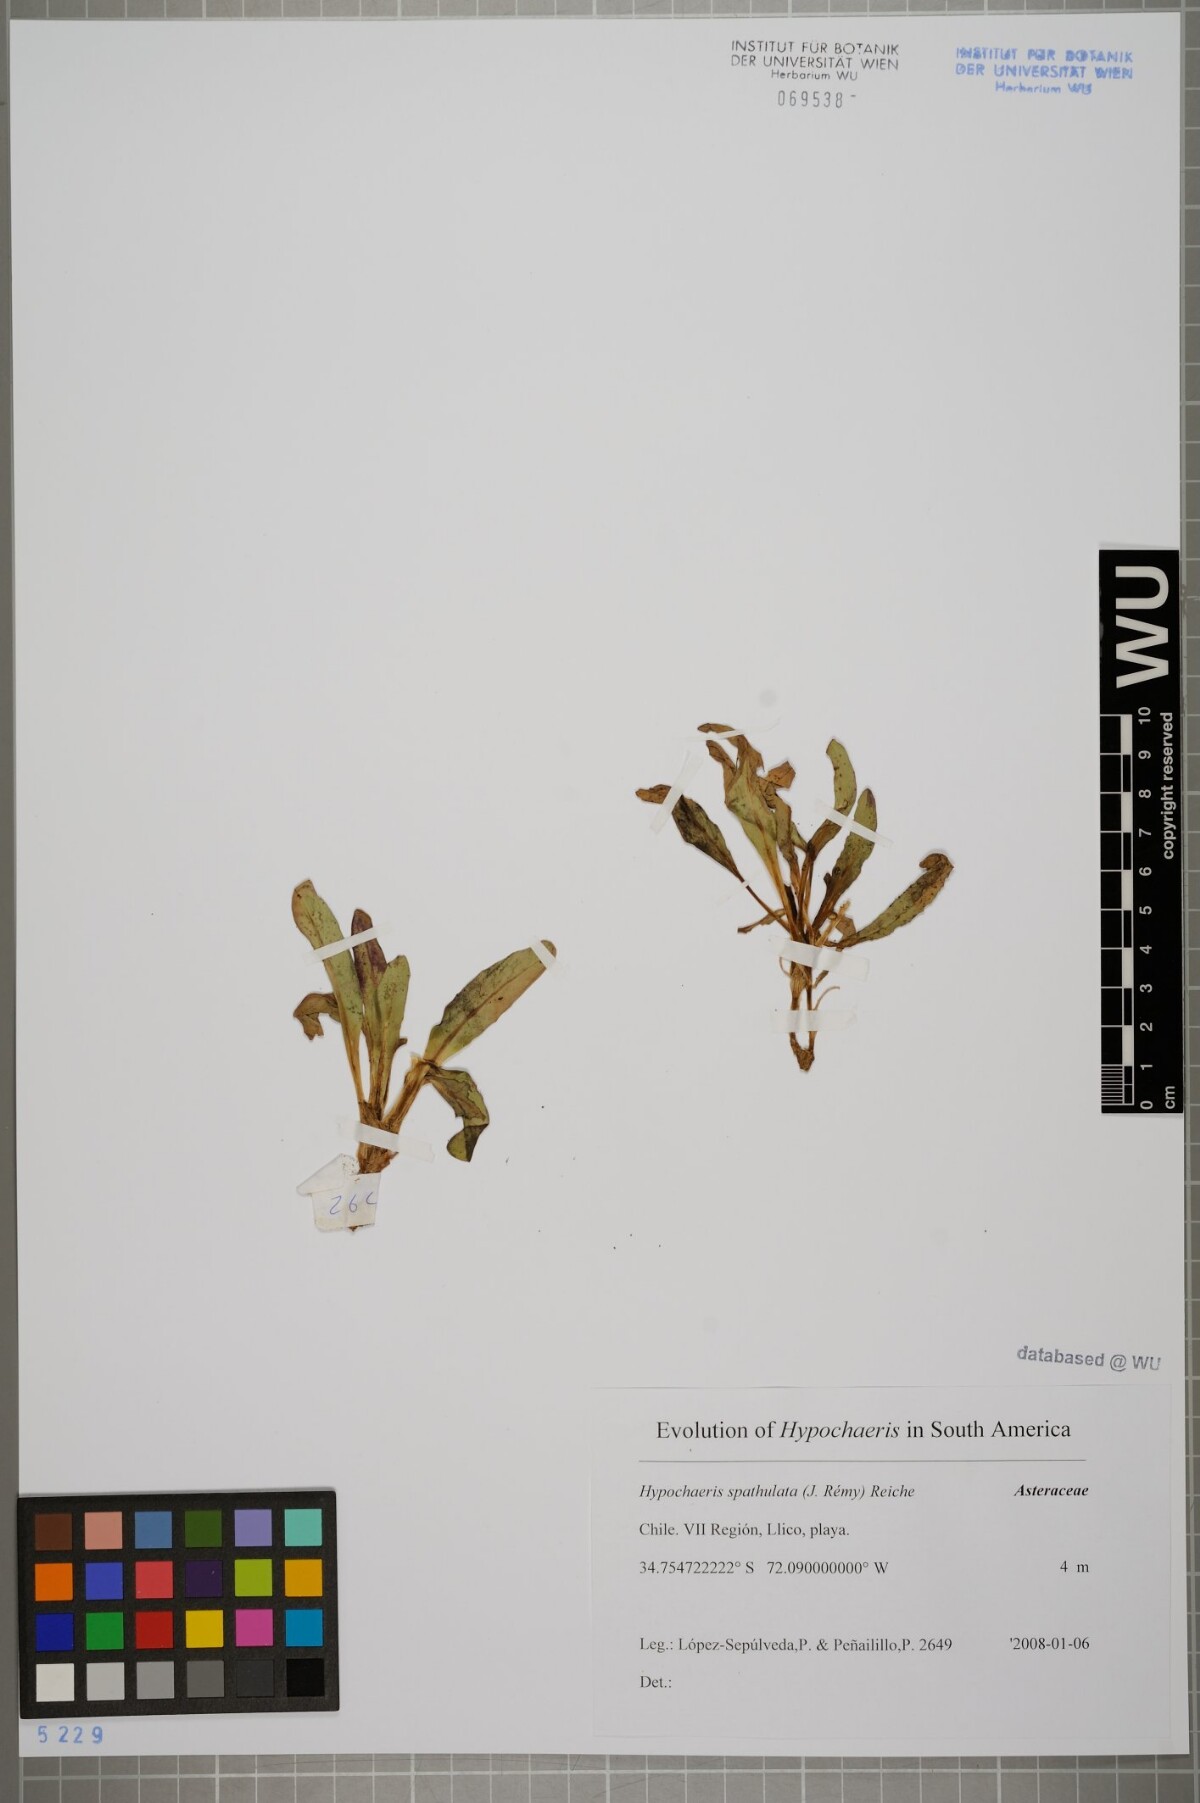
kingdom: Plantae
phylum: Tracheophyta
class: Magnoliopsida
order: Asterales
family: Asteraceae
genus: Hypochaeris
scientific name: Hypochaeris spathulata
